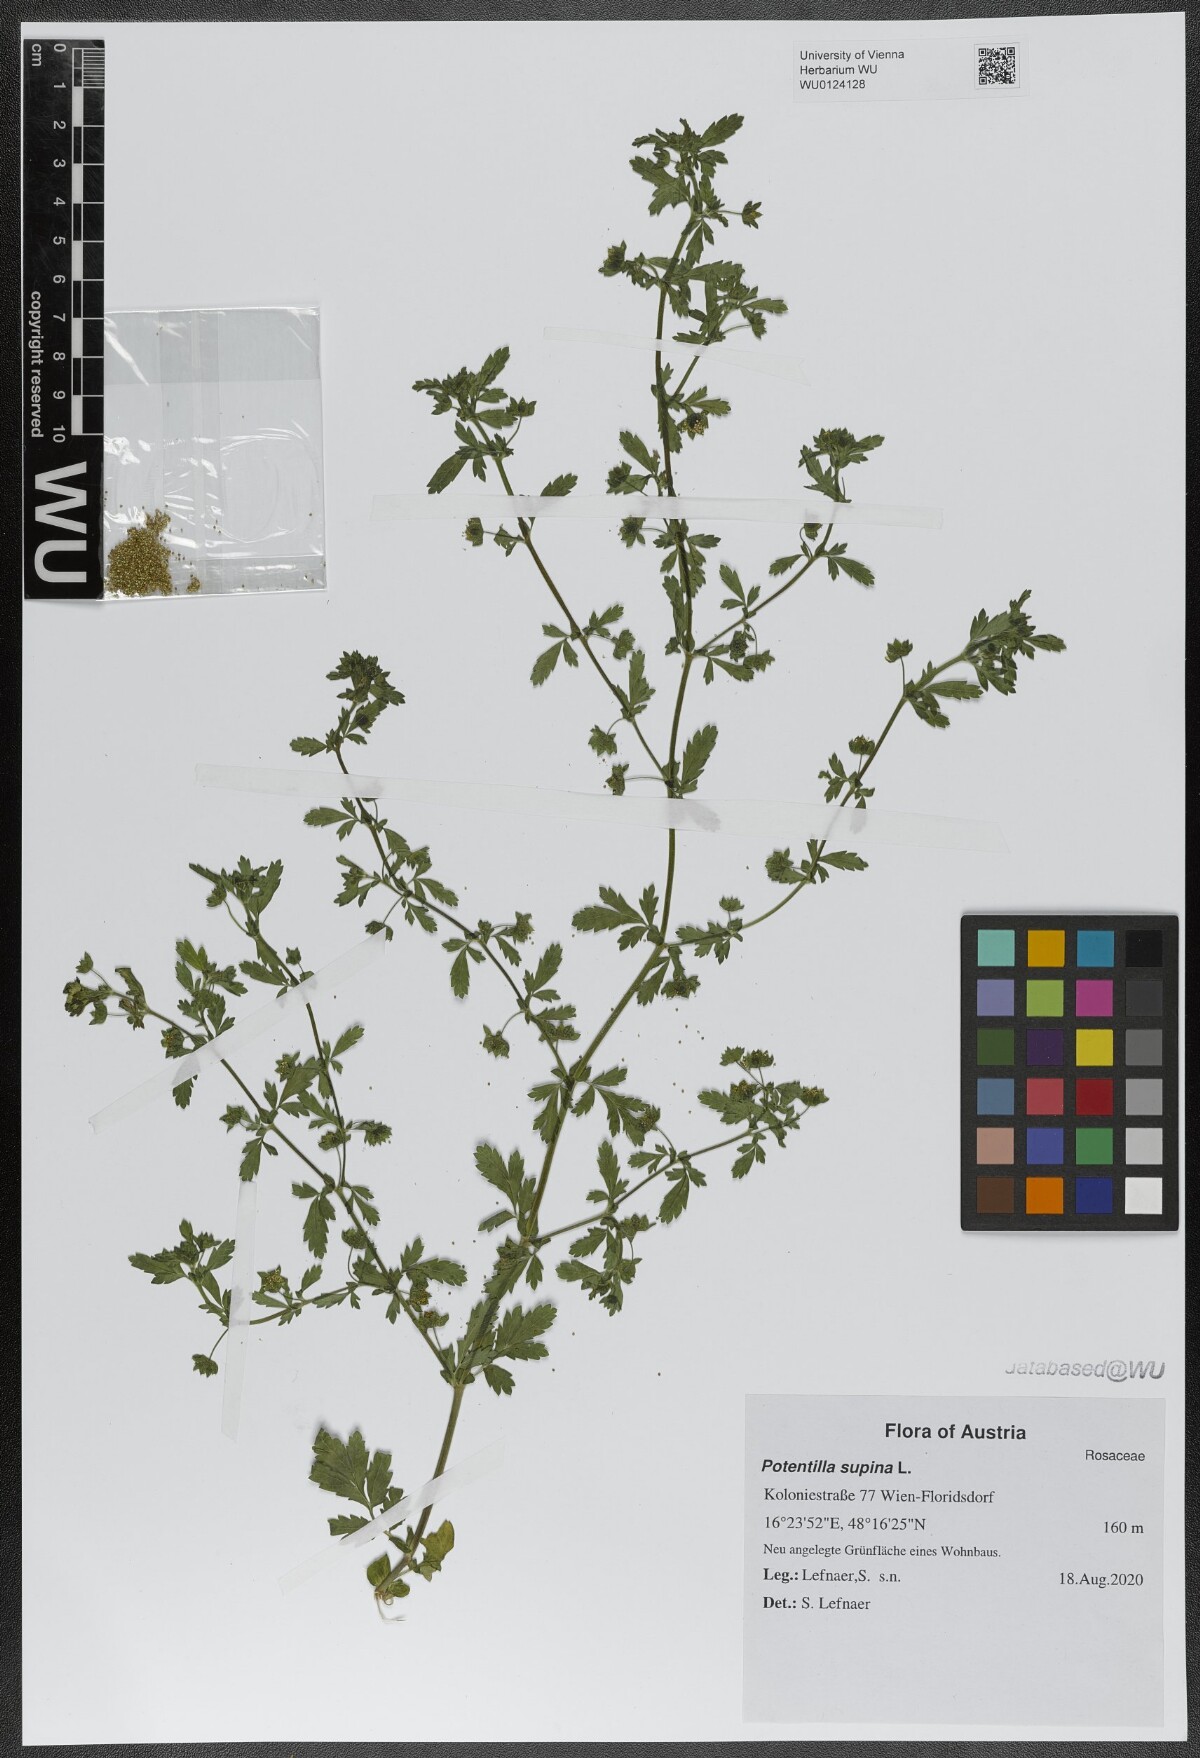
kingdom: Plantae
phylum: Tracheophyta
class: Magnoliopsida
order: Rosales
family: Rosaceae
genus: Potentilla
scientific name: Potentilla supina
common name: Prostrate cinquefoil
